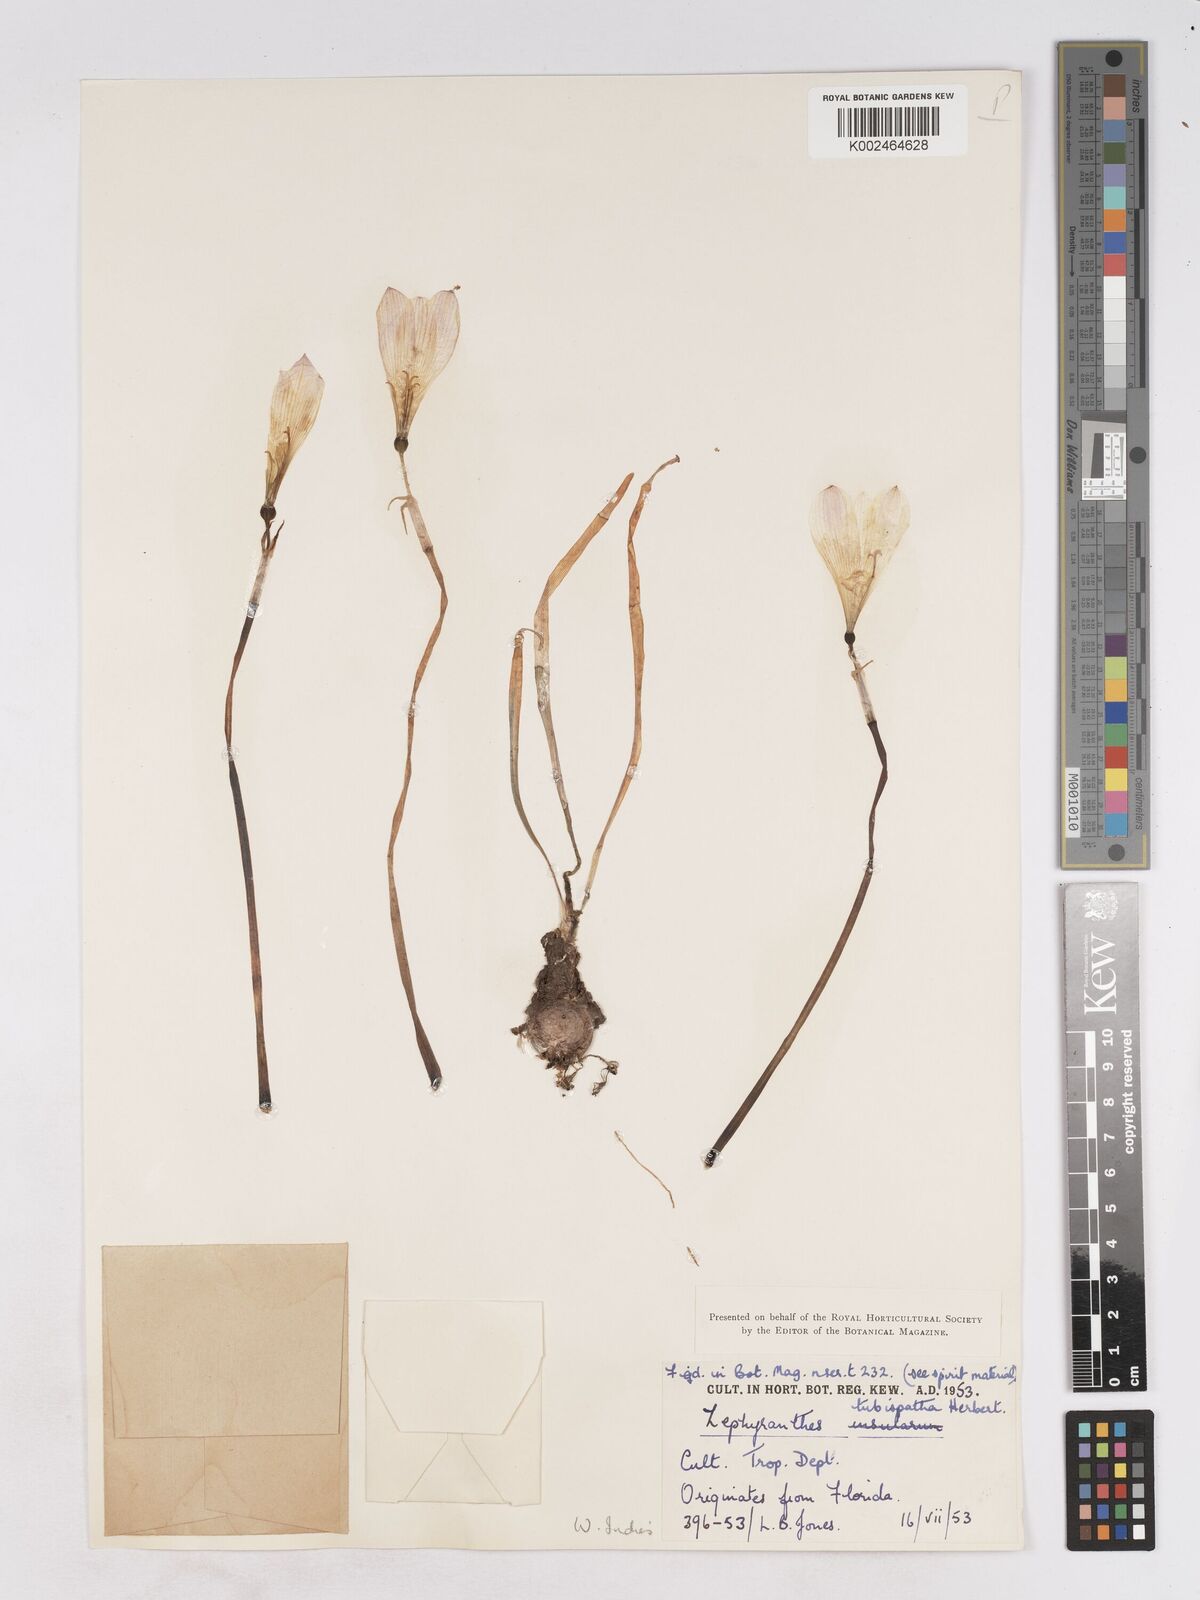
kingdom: Plantae
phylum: Tracheophyta
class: Liliopsida
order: Asparagales
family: Amaryllidaceae
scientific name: Amaryllidaceae
